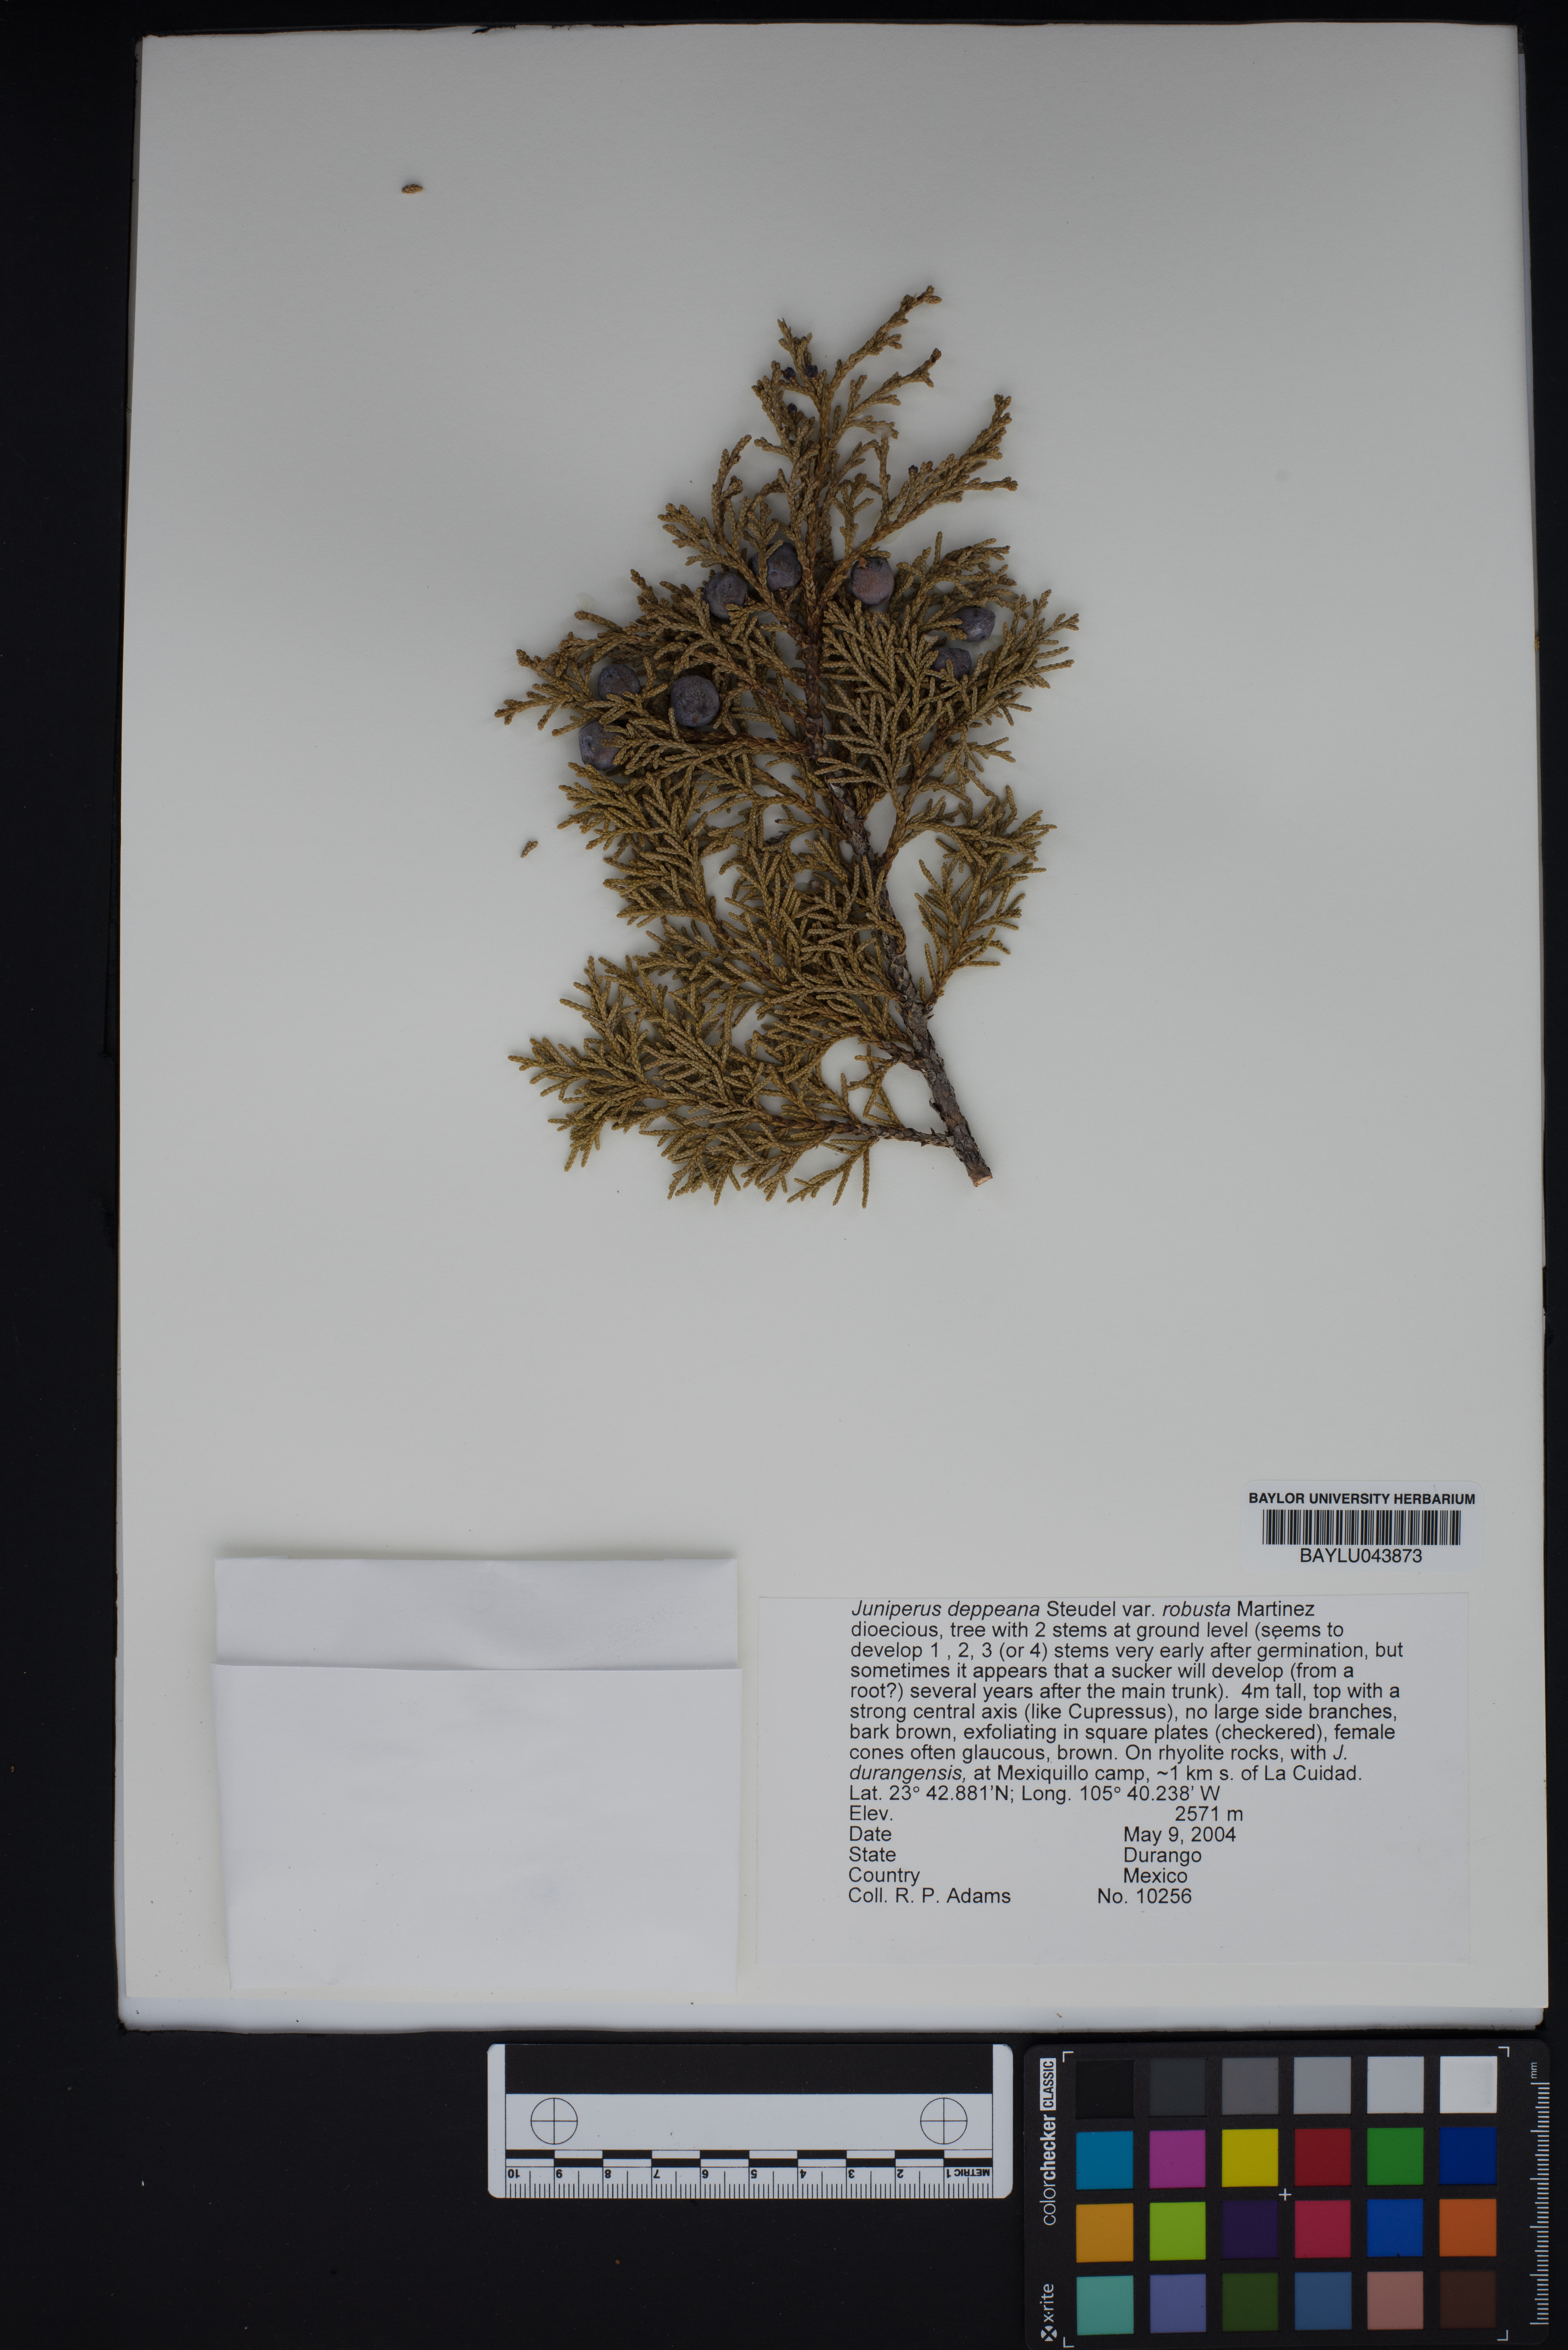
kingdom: Plantae
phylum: Tracheophyta
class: Pinopsida
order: Pinales
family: Cupressaceae
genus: Juniperus
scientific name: Juniperus deppeana
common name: Alligator juniper
